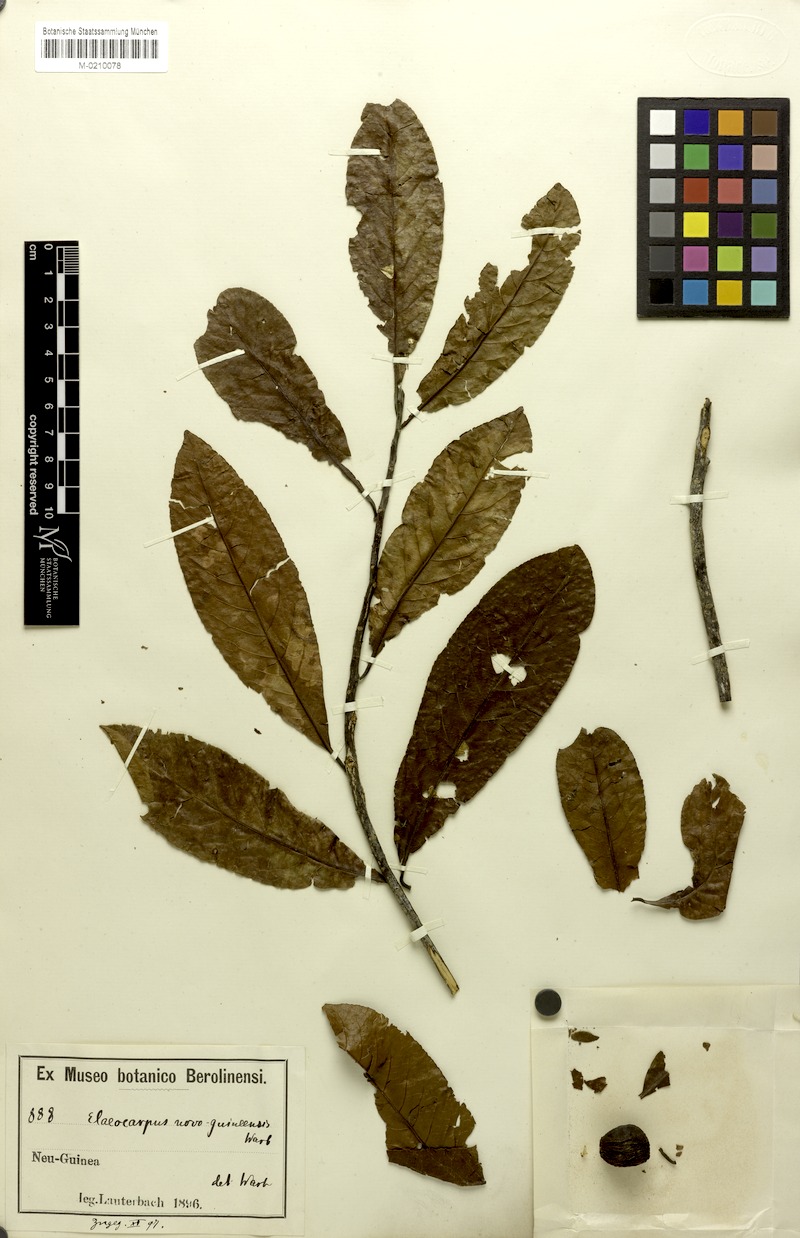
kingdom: Plantae
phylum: Tracheophyta
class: Magnoliopsida
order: Oxalidales
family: Elaeocarpaceae
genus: Elaeocarpus
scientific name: Elaeocarpus angustifolius
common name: Blue marble tree
